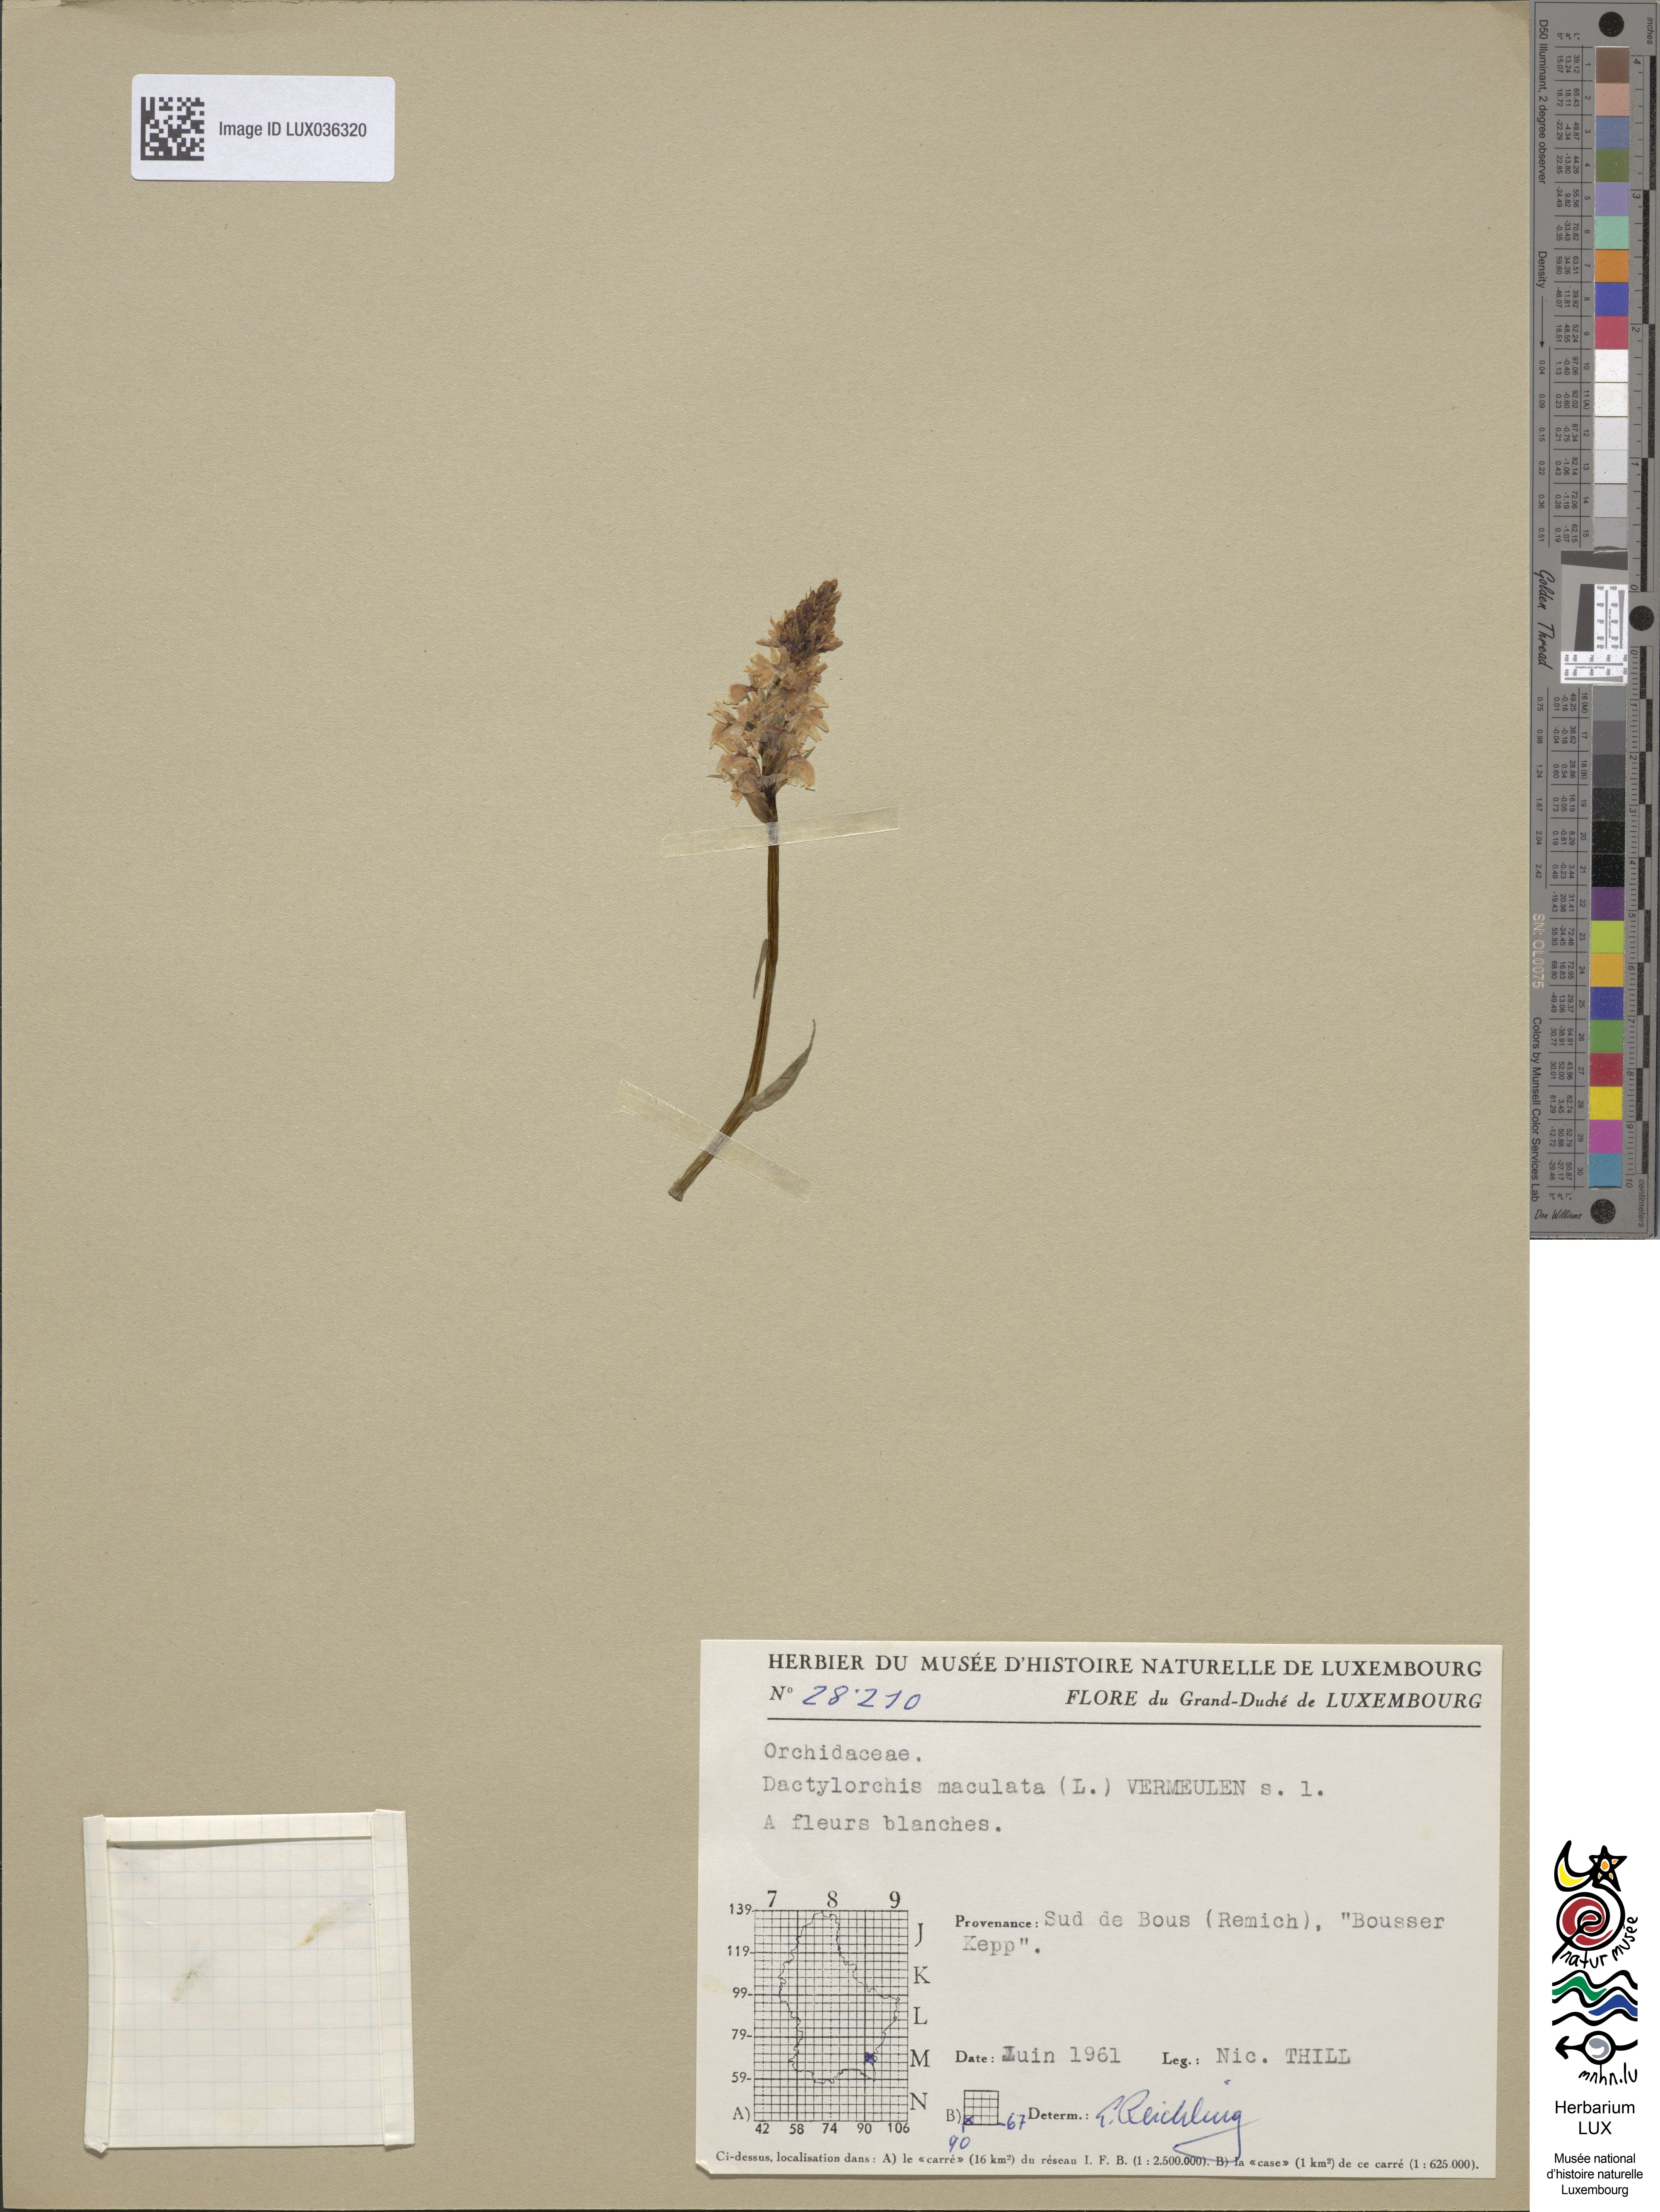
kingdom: Plantae
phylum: Tracheophyta
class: Liliopsida
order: Asparagales
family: Orchidaceae
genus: Dactylorhiza
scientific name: Dactylorhiza maculata
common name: Heath spotted-orchid
